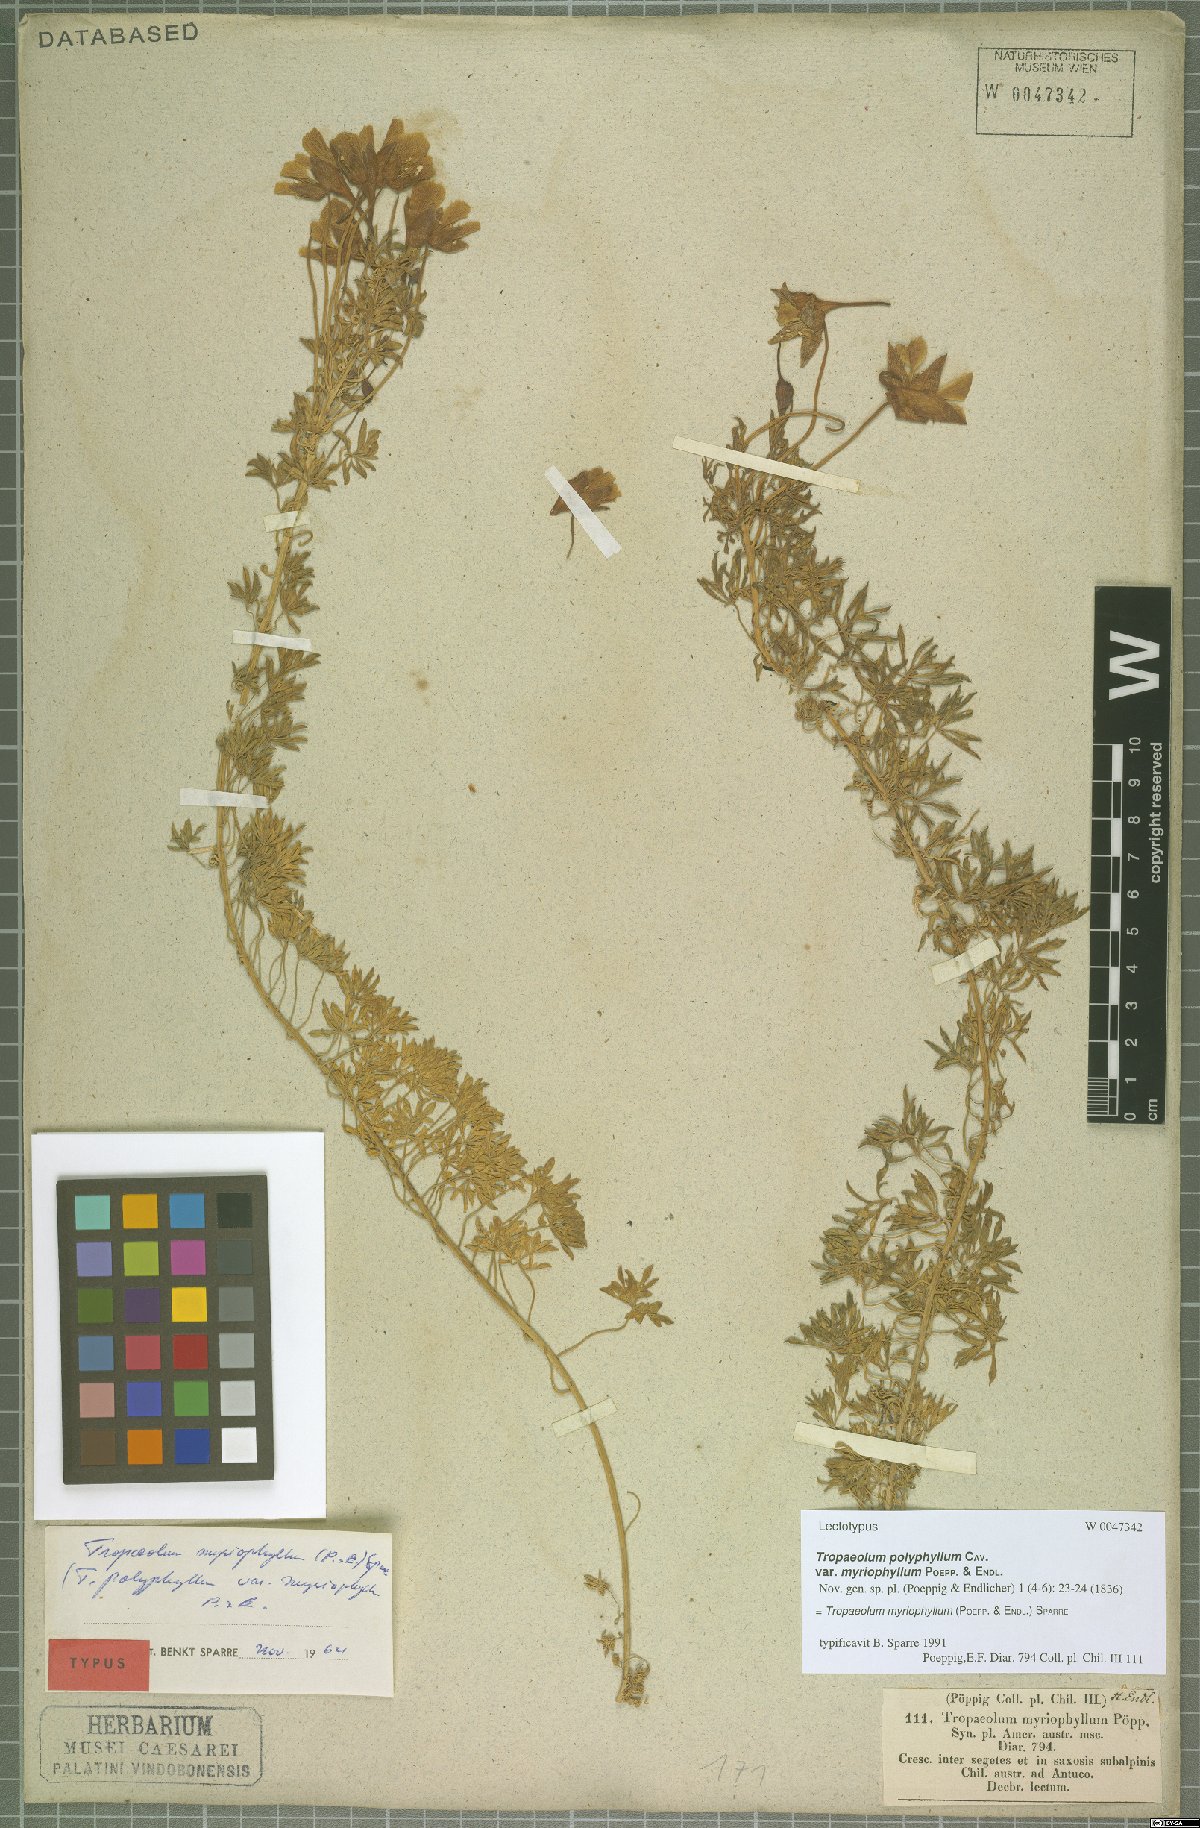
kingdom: Plantae
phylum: Tracheophyta
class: Magnoliopsida
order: Brassicales
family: Tropaeolaceae
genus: Tropaeolum
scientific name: Tropaeolum myriophyllum
